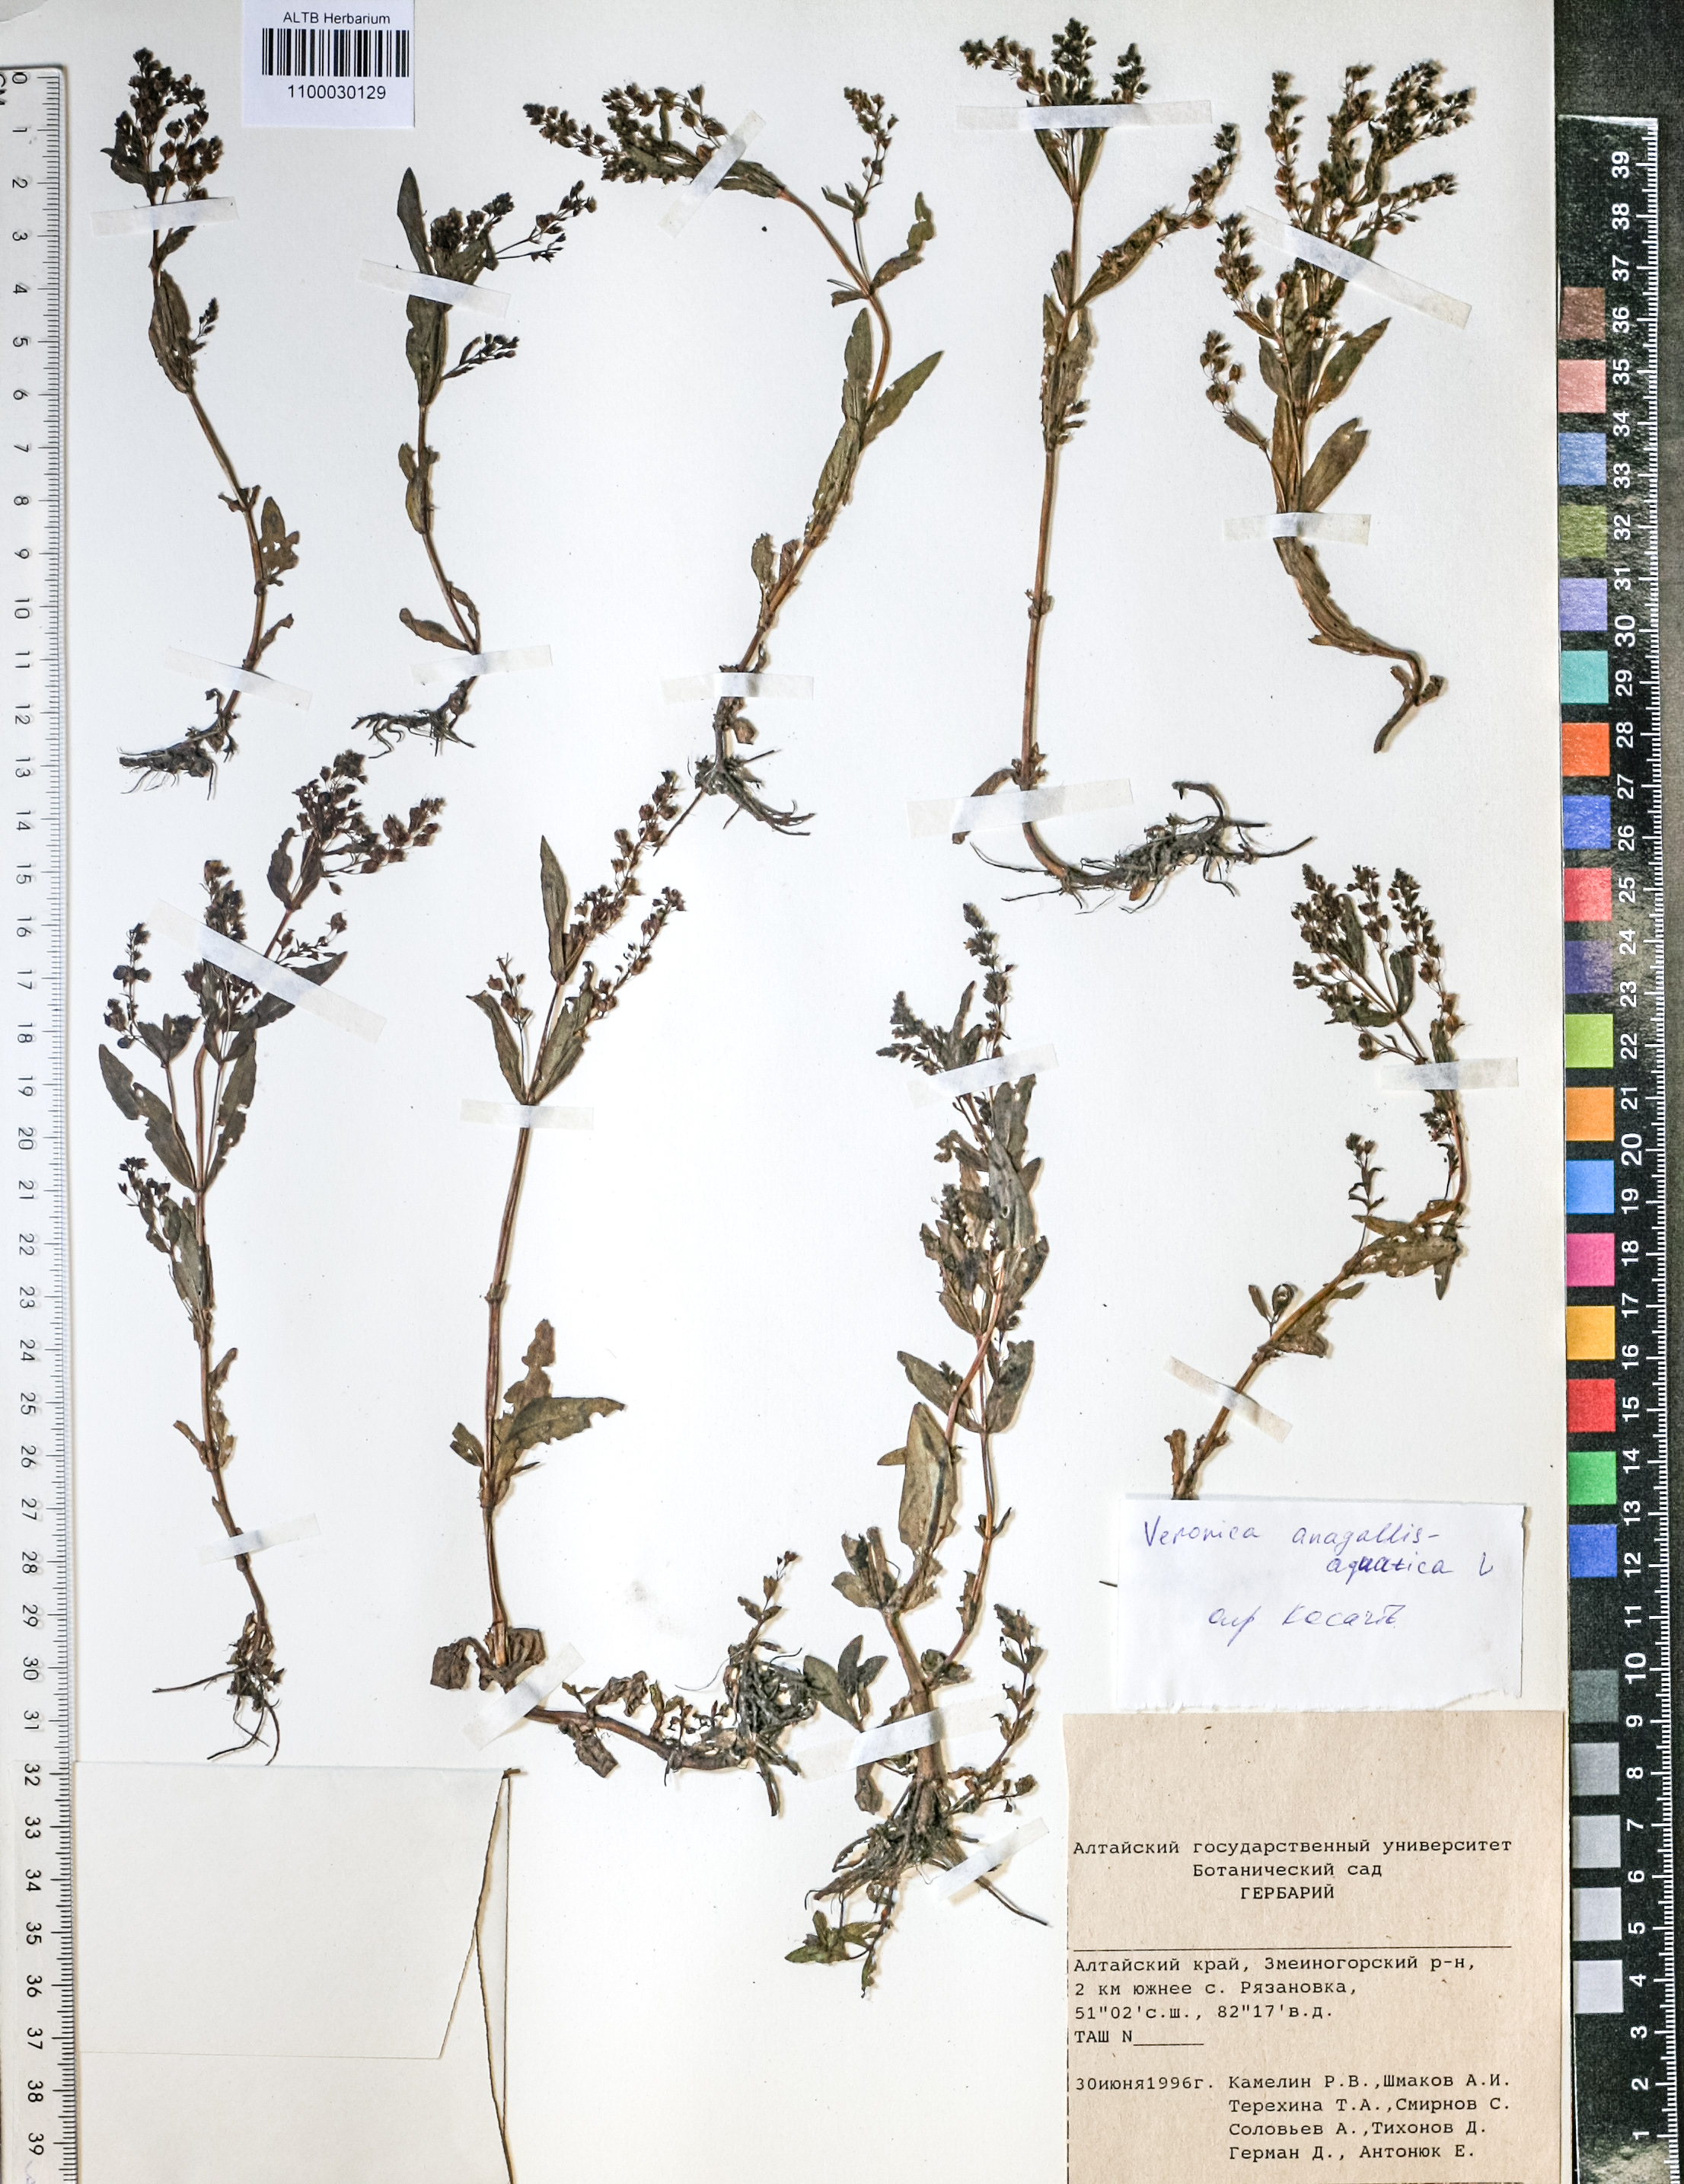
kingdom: Plantae
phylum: Tracheophyta
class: Magnoliopsida
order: Lamiales
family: Plantaginaceae
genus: Veronica
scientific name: Veronica anagallis-aquatica
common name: Water speedwell
